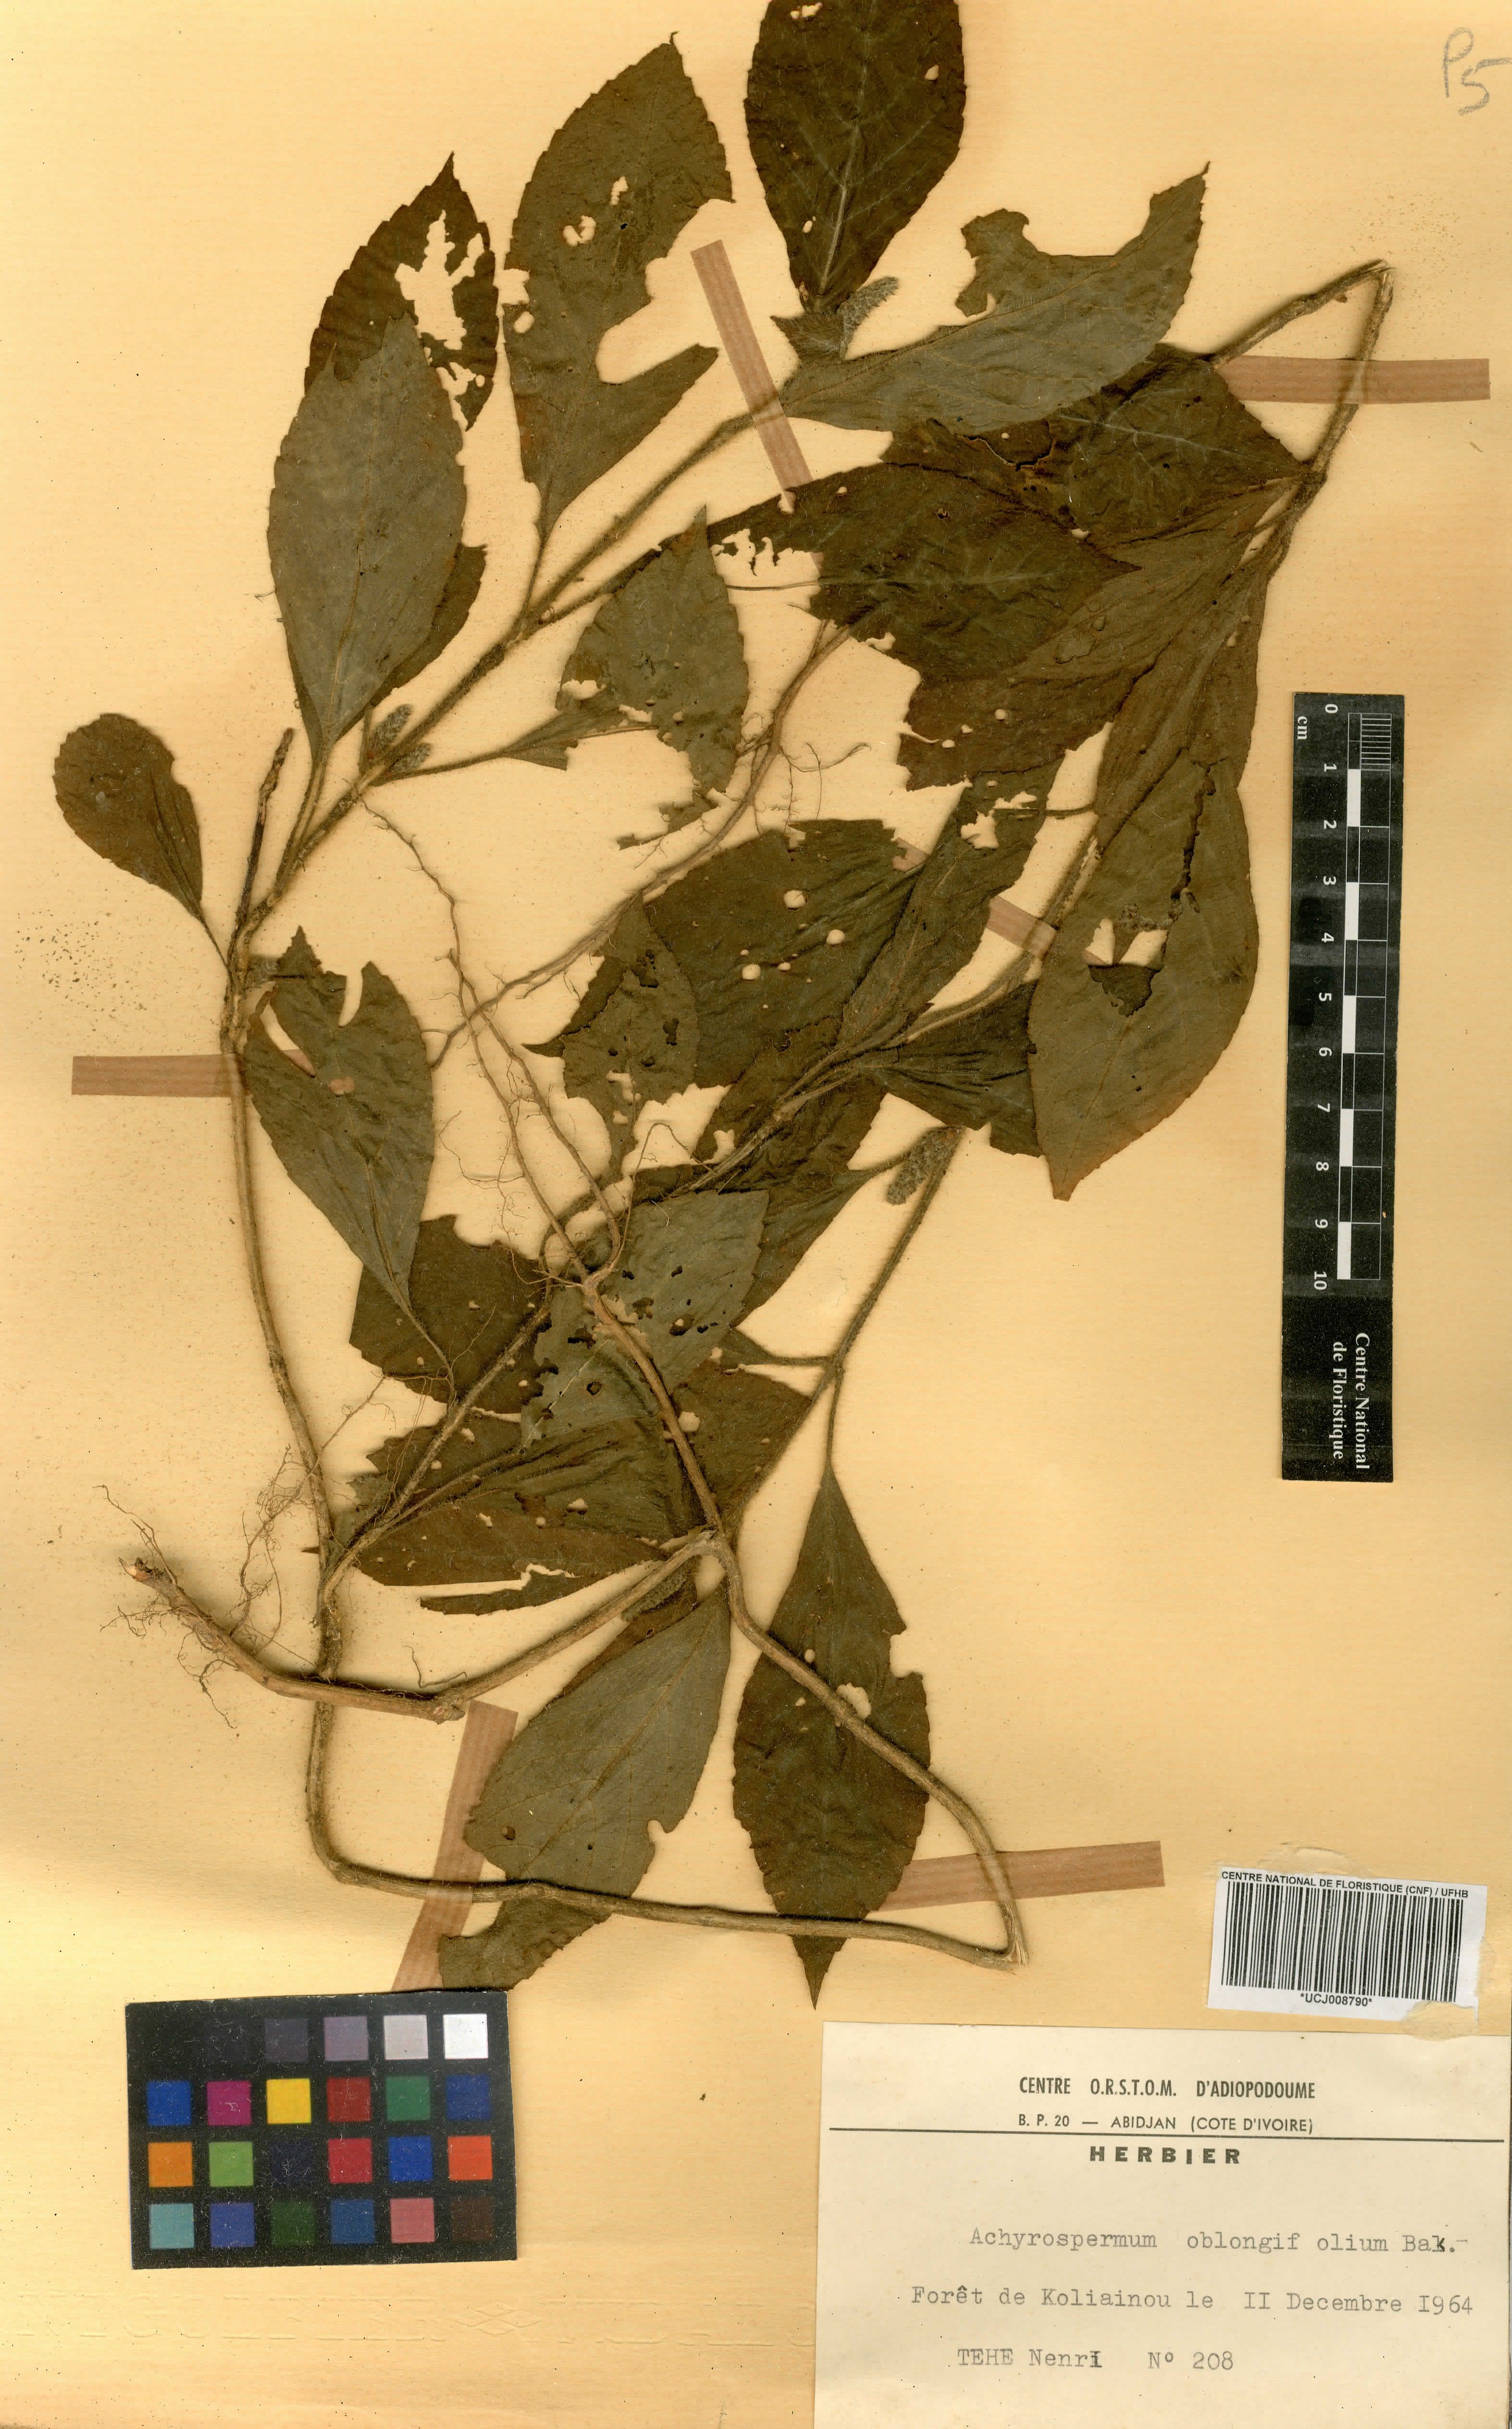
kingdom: Plantae
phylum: Tracheophyta
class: Magnoliopsida
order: Lamiales
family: Lamiaceae
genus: Achyrospermum
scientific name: Achyrospermum oblongifolium
